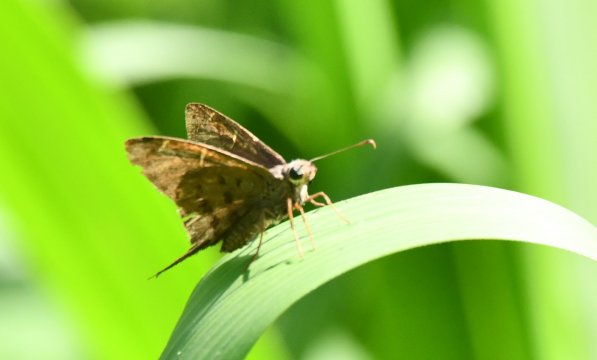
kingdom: Animalia
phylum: Arthropoda
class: Insecta
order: Lepidoptera
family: Hesperiidae
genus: Urbanus
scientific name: Urbanus procne
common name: Brown Longtail
